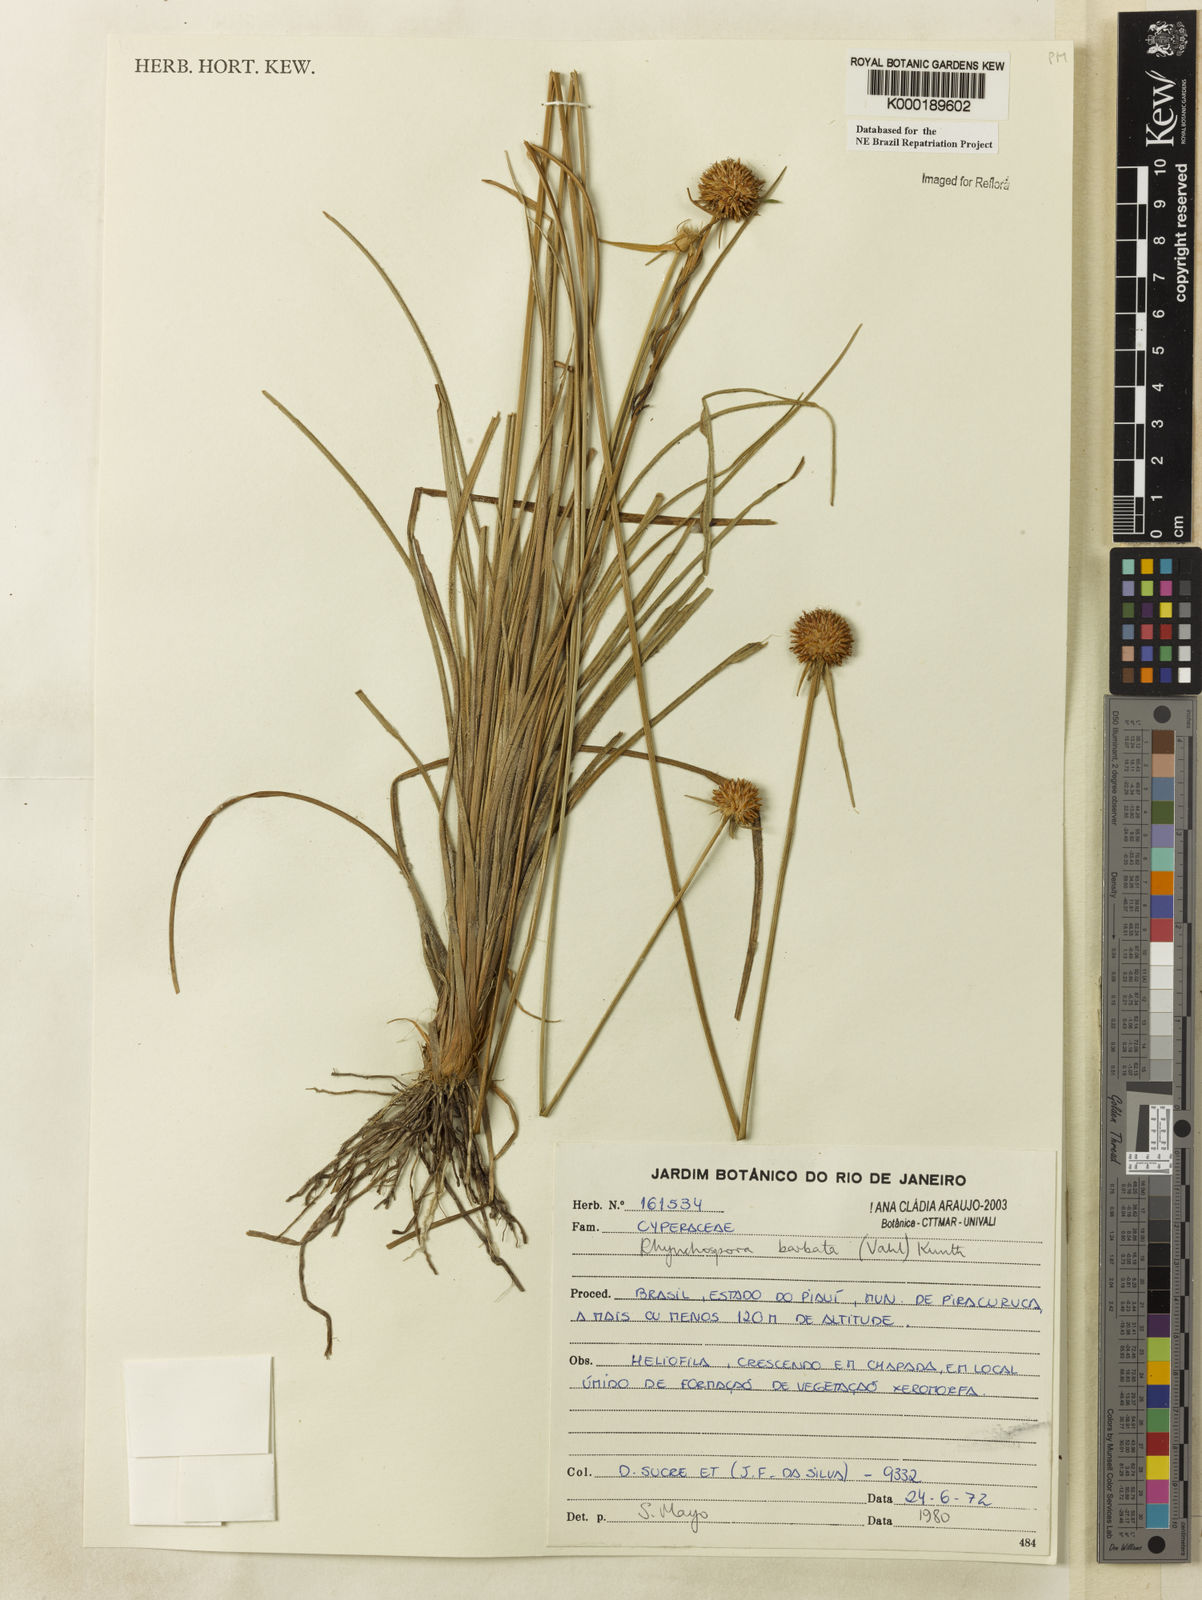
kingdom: Plantae
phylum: Tracheophyta
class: Liliopsida
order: Poales
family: Cyperaceae
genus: Rhynchospora
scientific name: Rhynchospora barbata
